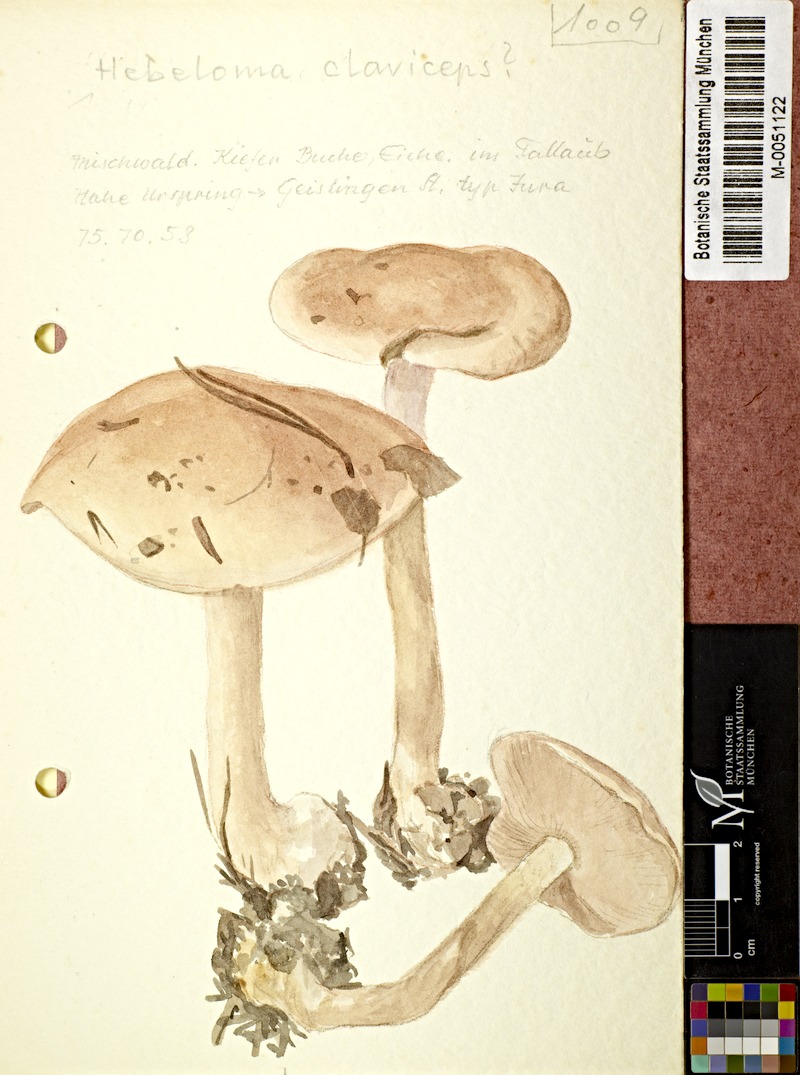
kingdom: Fungi
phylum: Basidiomycota
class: Agaricomycetes
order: Agaricales
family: Hymenogastraceae
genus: Hebeloma
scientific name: Hebeloma claviceps
